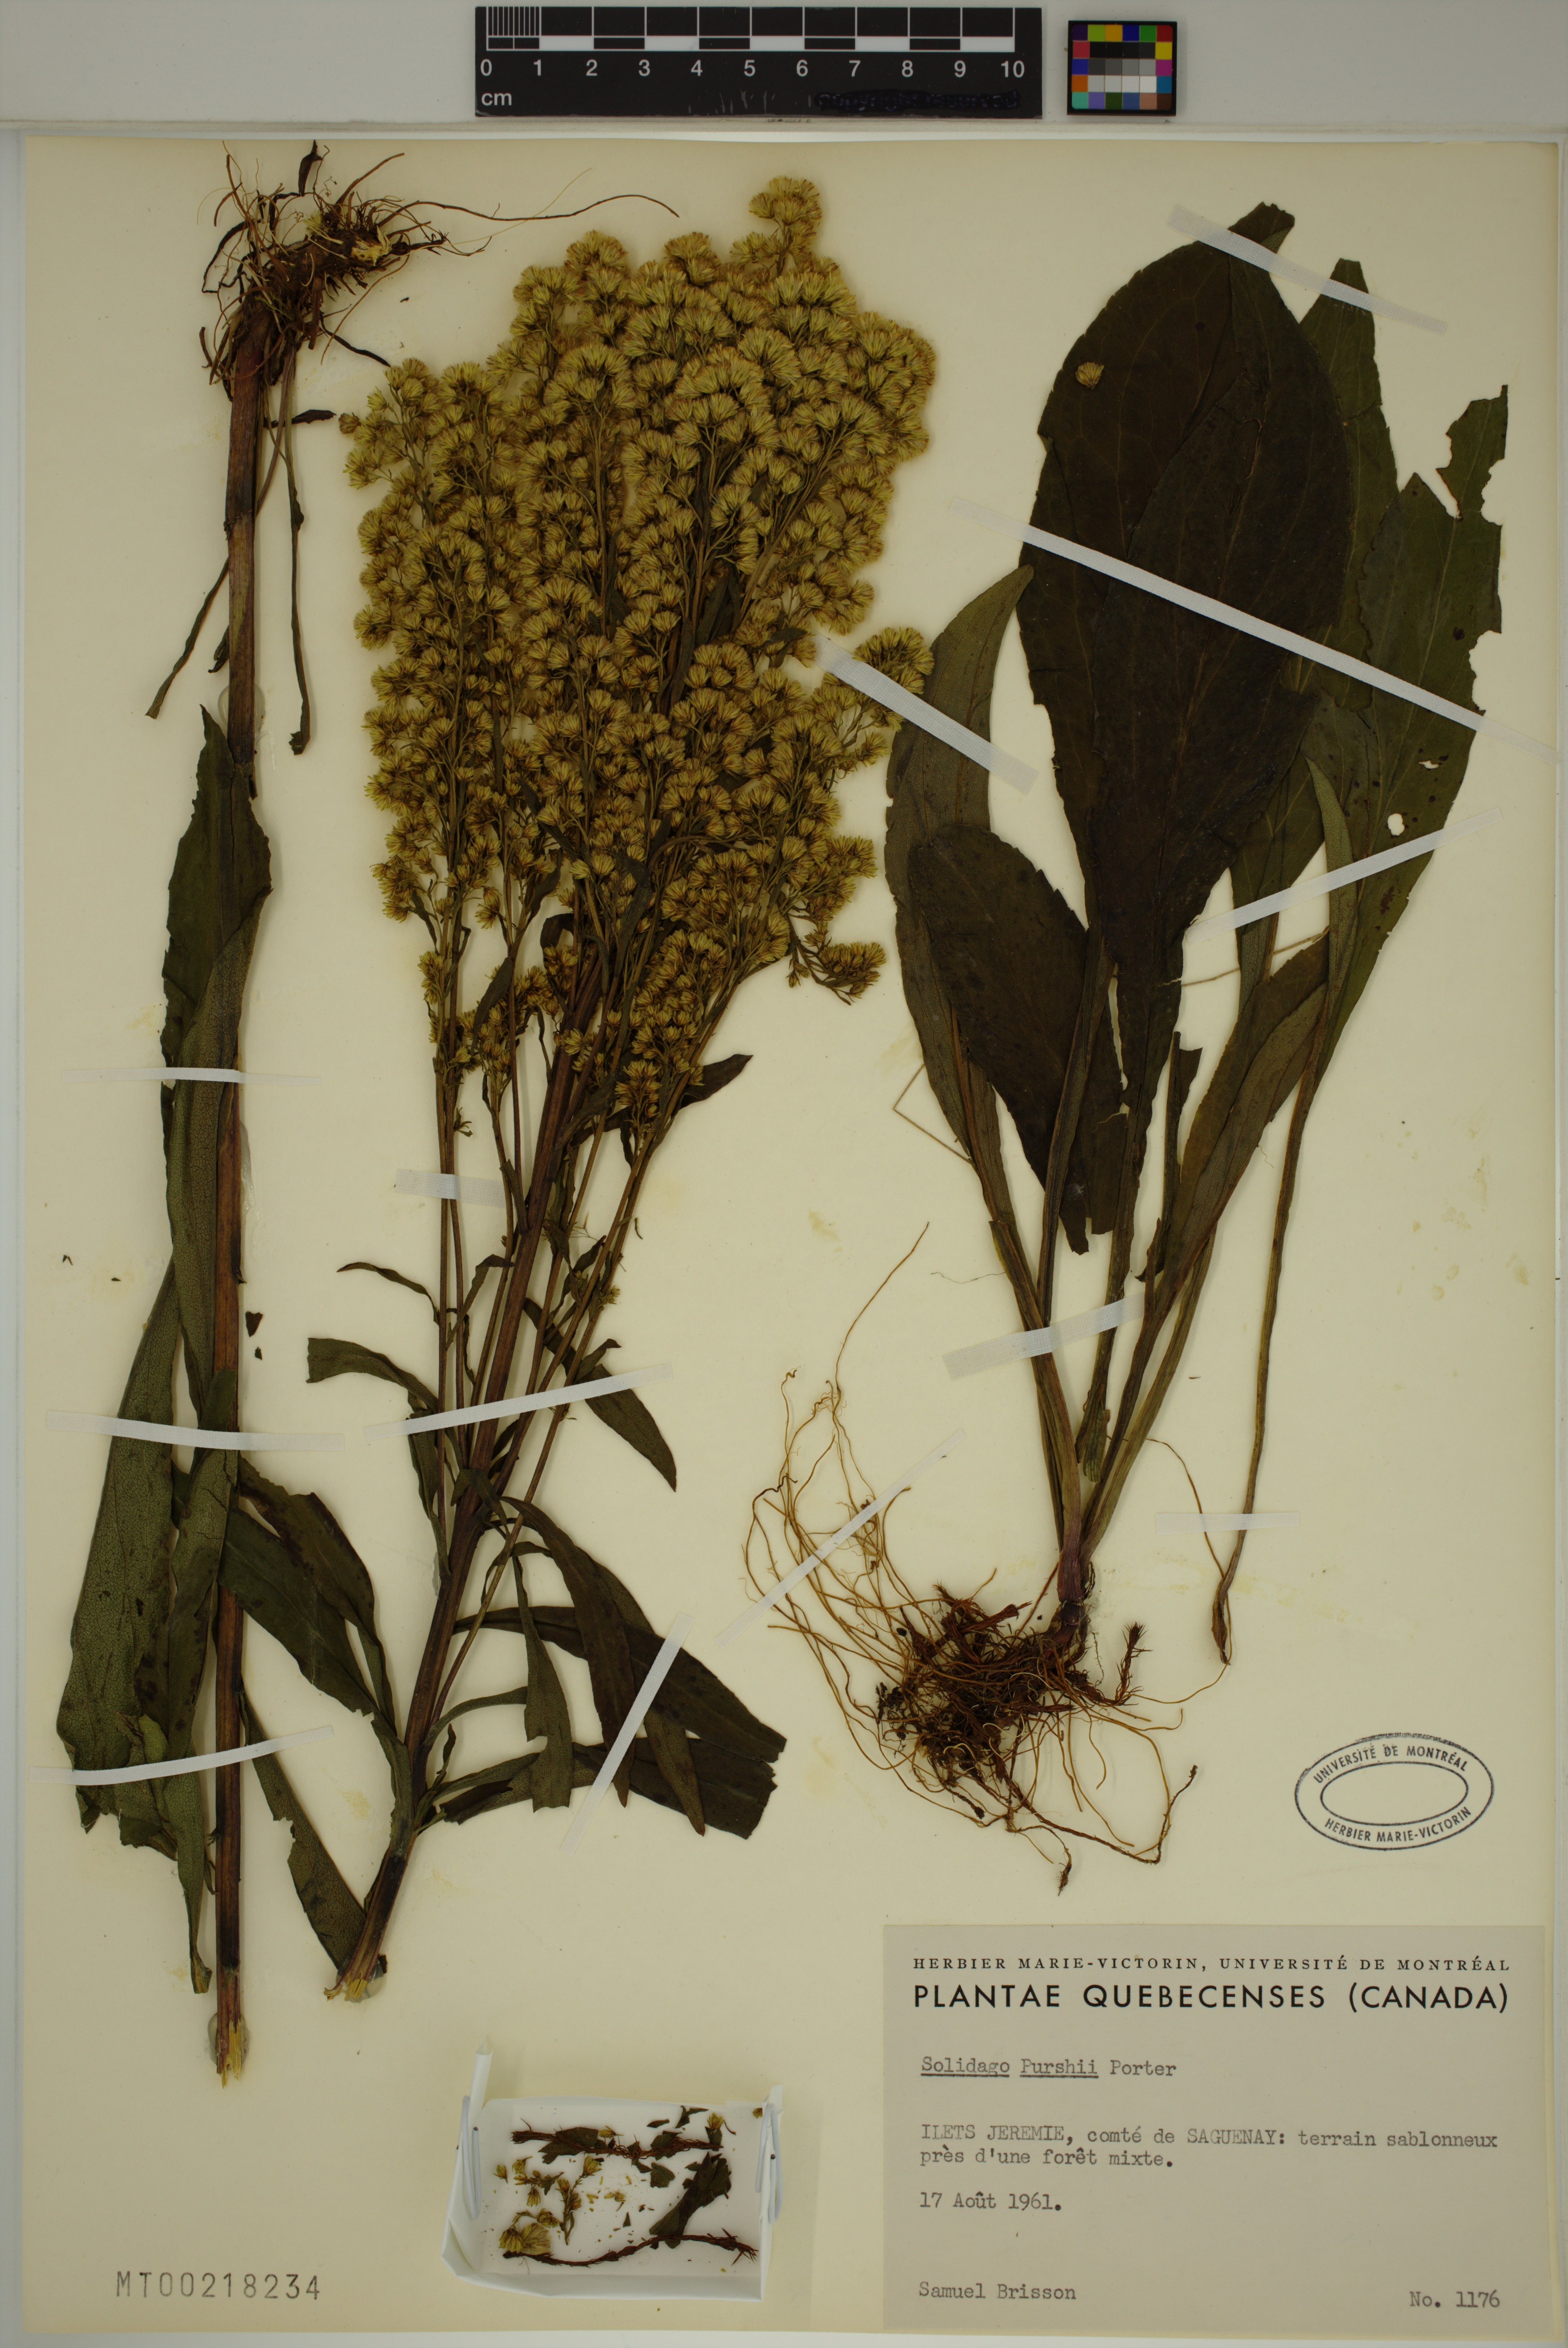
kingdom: Plantae
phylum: Tracheophyta
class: Magnoliopsida
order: Asterales
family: Asteraceae
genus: Solidago
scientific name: Solidago uliginosa
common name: Bog goldenrod
